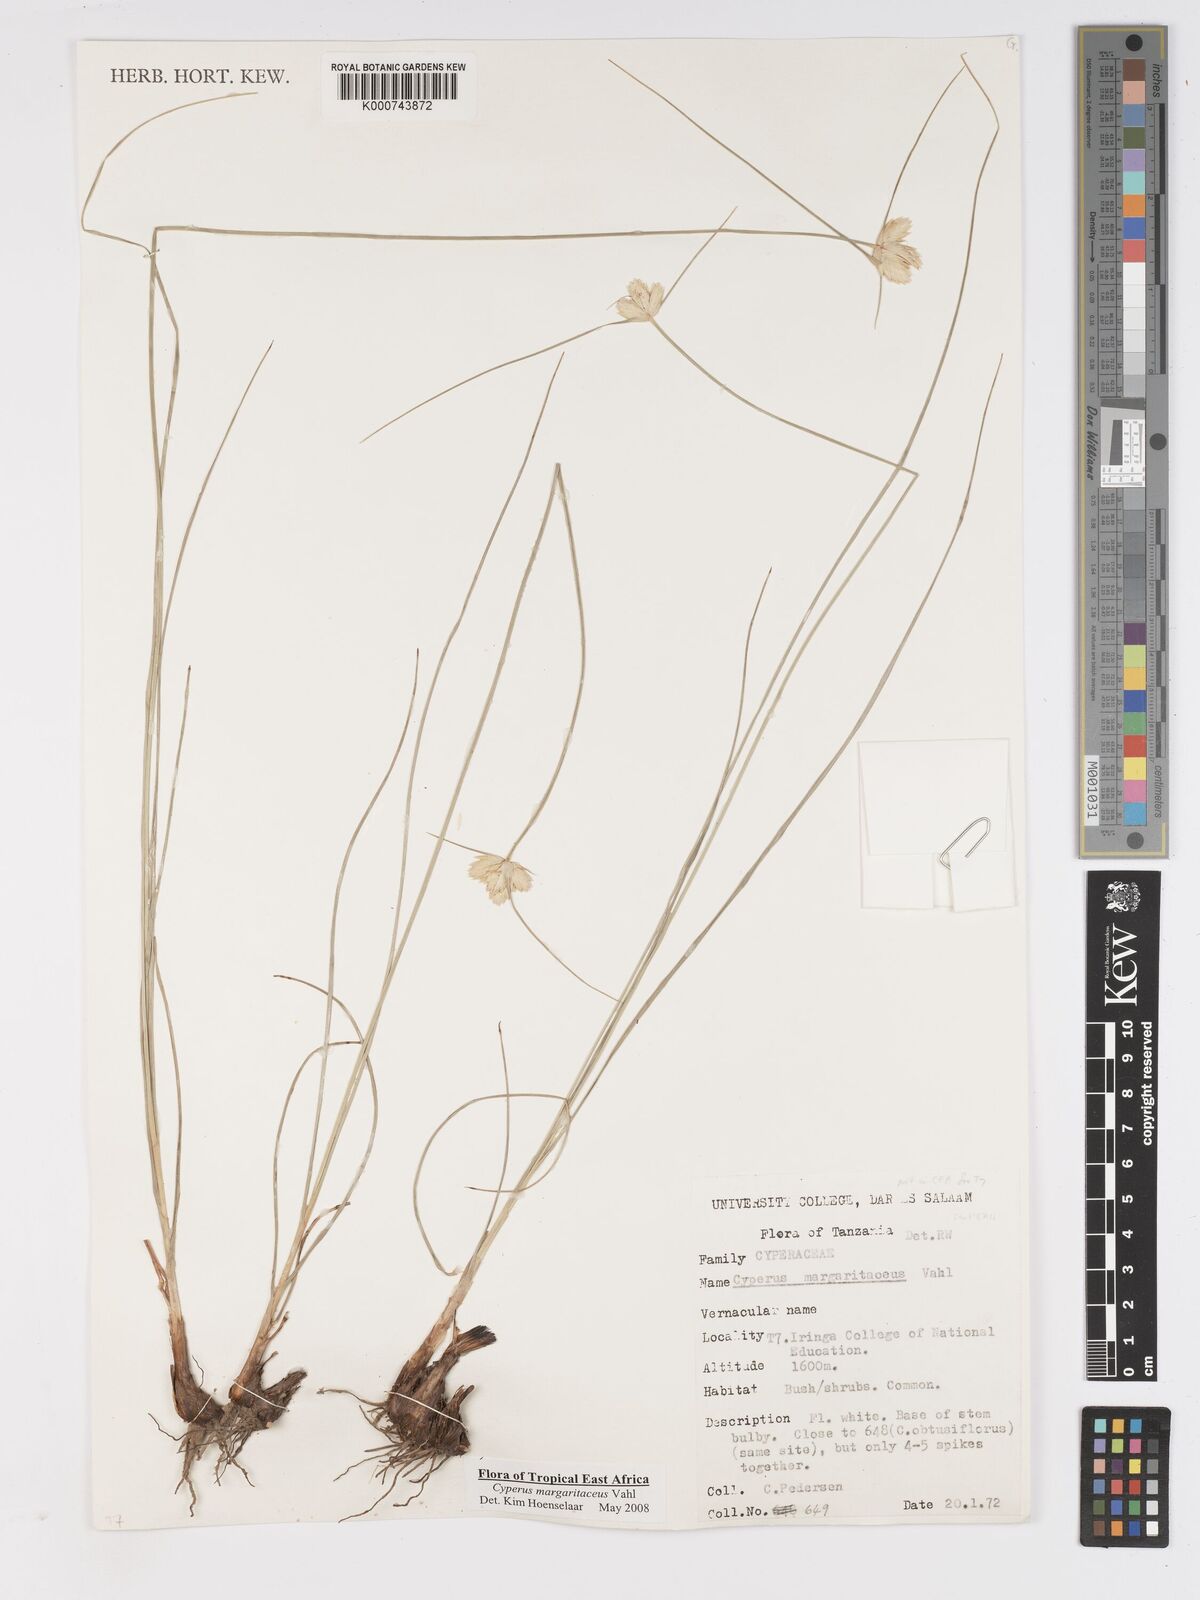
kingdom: Plantae
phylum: Tracheophyta
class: Liliopsida
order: Poales
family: Cyperaceae
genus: Cyperus
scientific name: Cyperus margaritaceus
